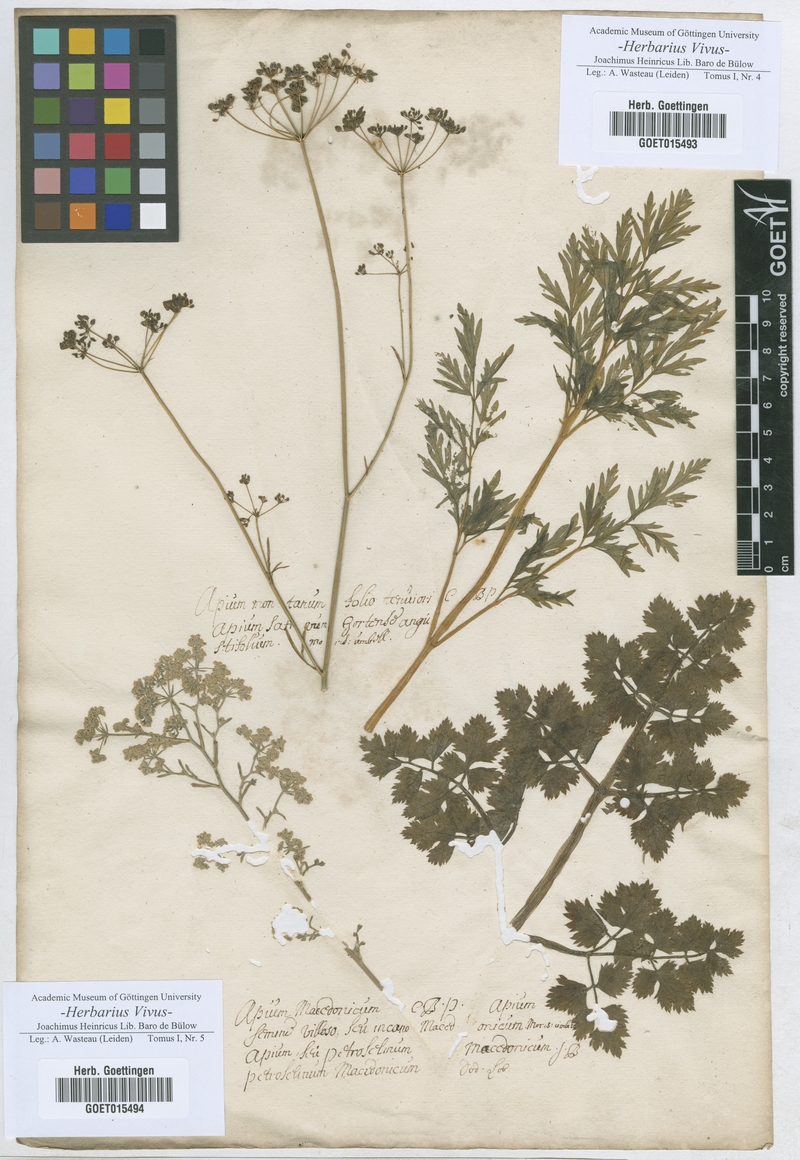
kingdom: Plantae
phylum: Tracheophyta
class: Magnoliopsida
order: Apiales
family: Apiaceae
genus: Apium
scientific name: Apium
